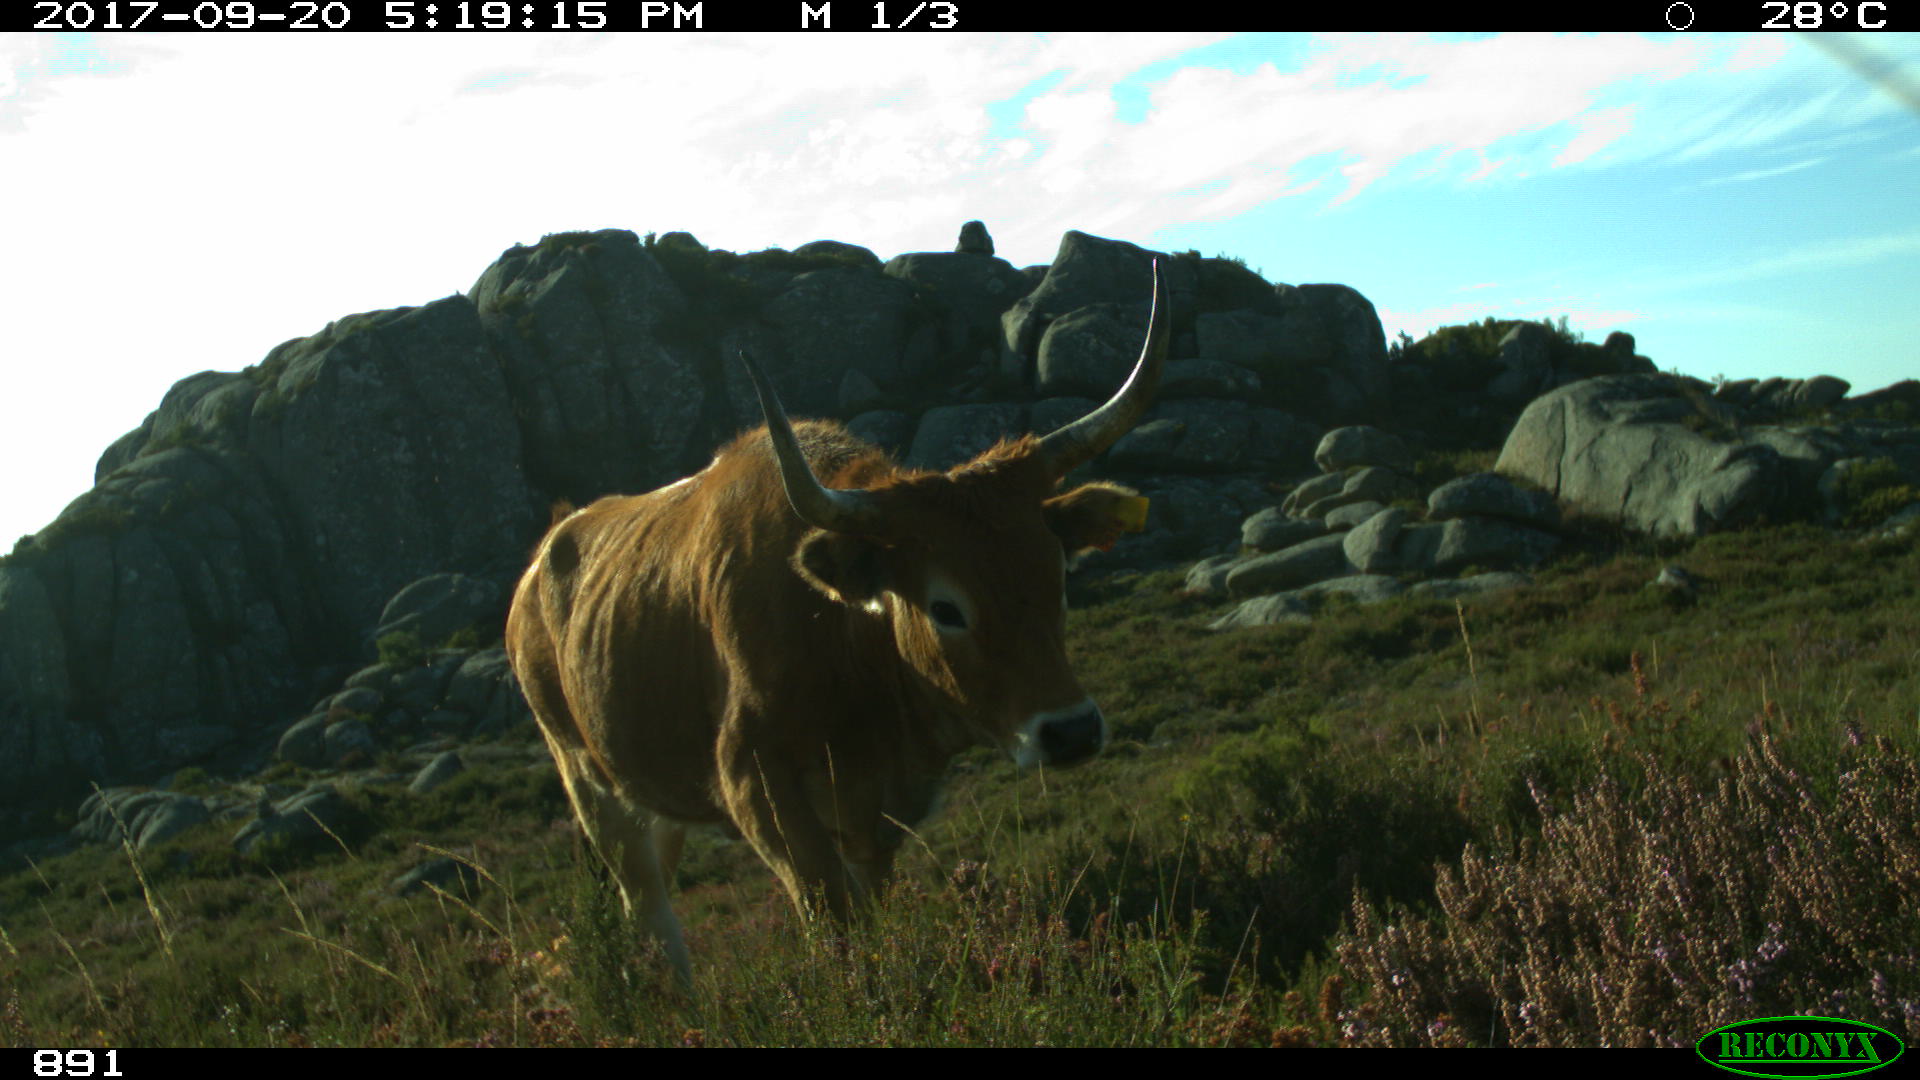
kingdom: Animalia
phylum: Chordata
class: Mammalia
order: Artiodactyla
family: Bovidae
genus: Bos
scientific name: Bos taurus
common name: Domesticated cattle
